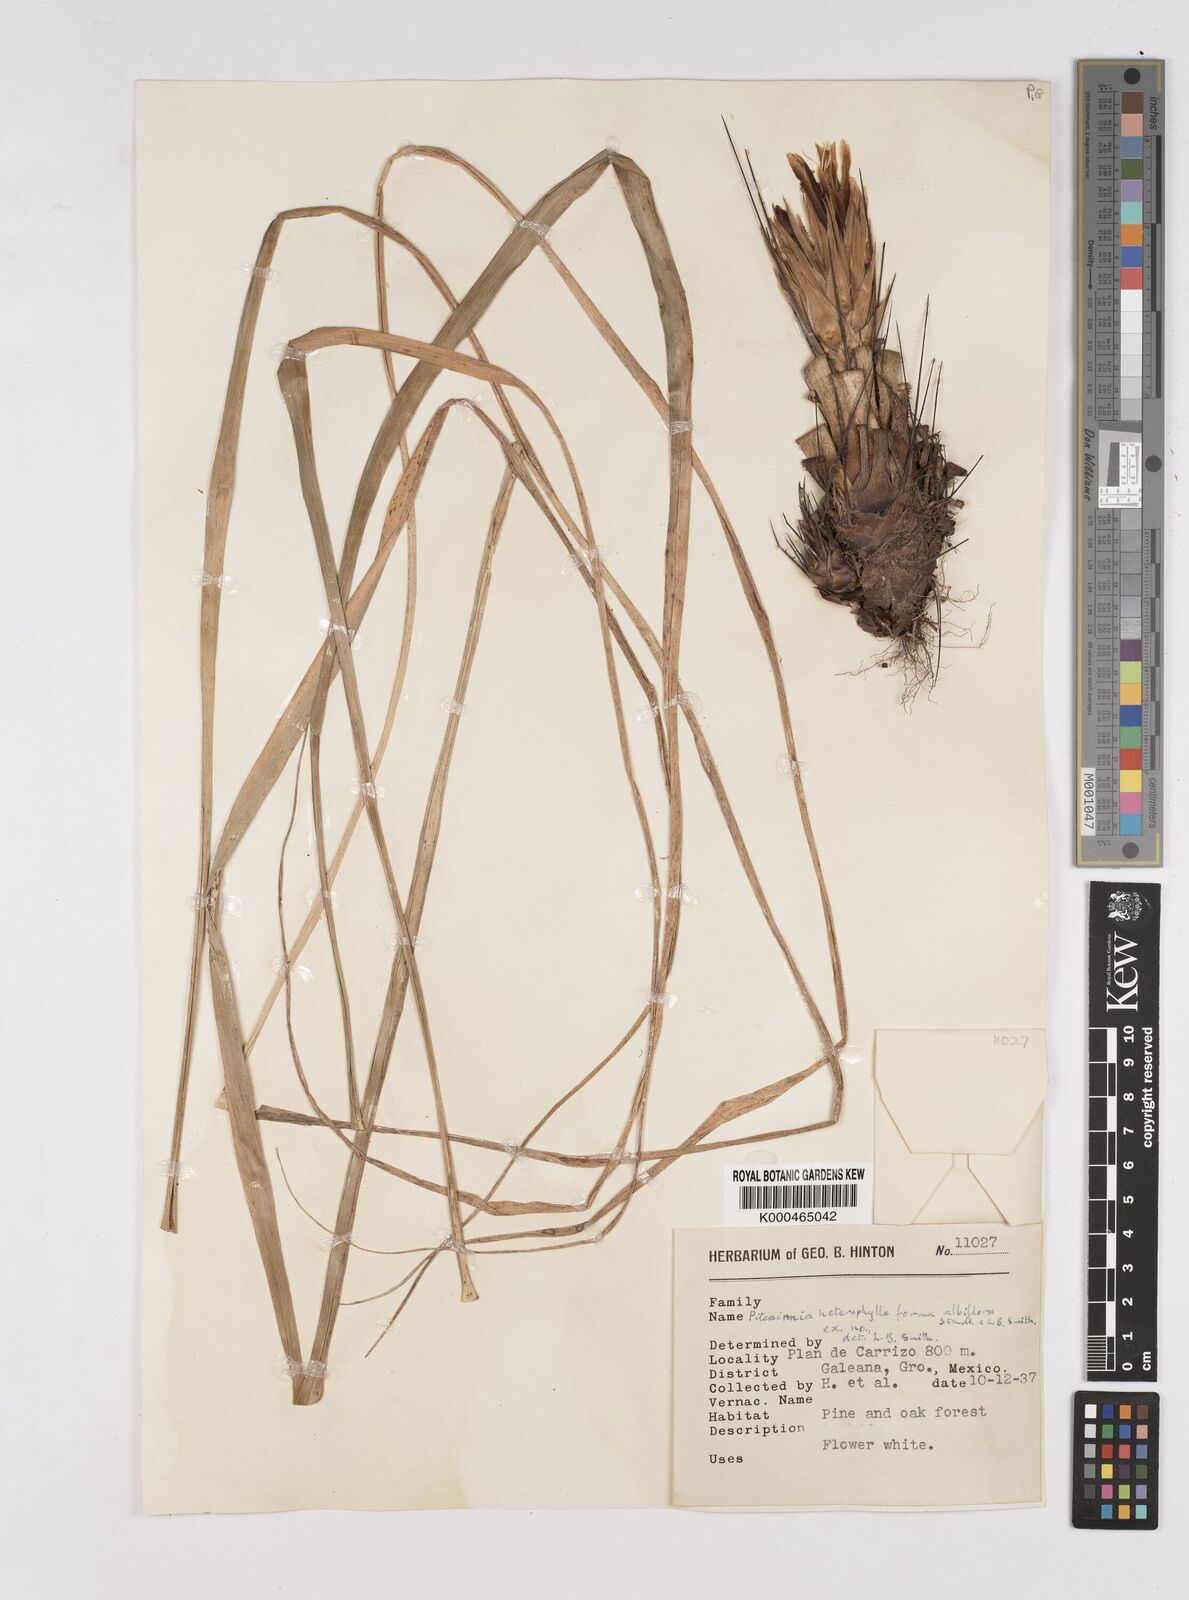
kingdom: Plantae
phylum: Tracheophyta
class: Liliopsida
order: Poales
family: Bromeliaceae
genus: Pitcairnia
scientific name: Pitcairnia heterophylla
